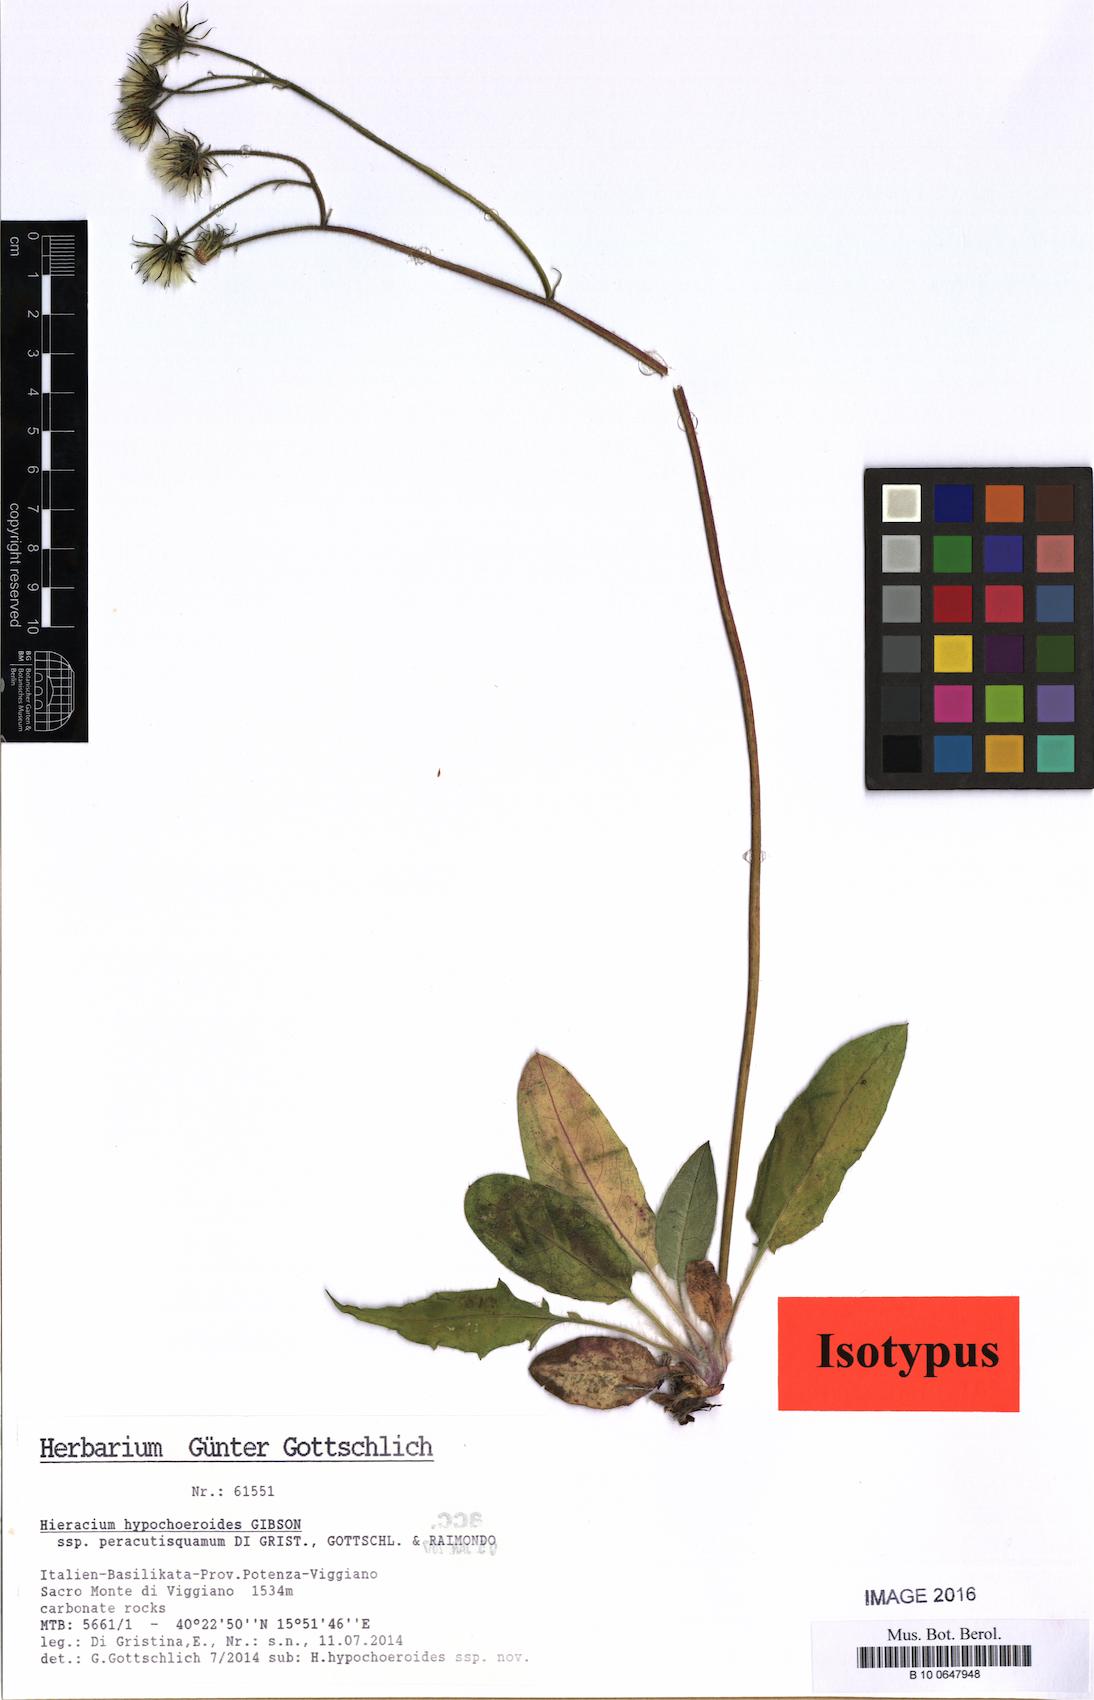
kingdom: Plantae
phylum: Tracheophyta
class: Magnoliopsida
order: Asterales
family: Asteraceae
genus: Hieracium
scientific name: Hieracium hypochoeroides
